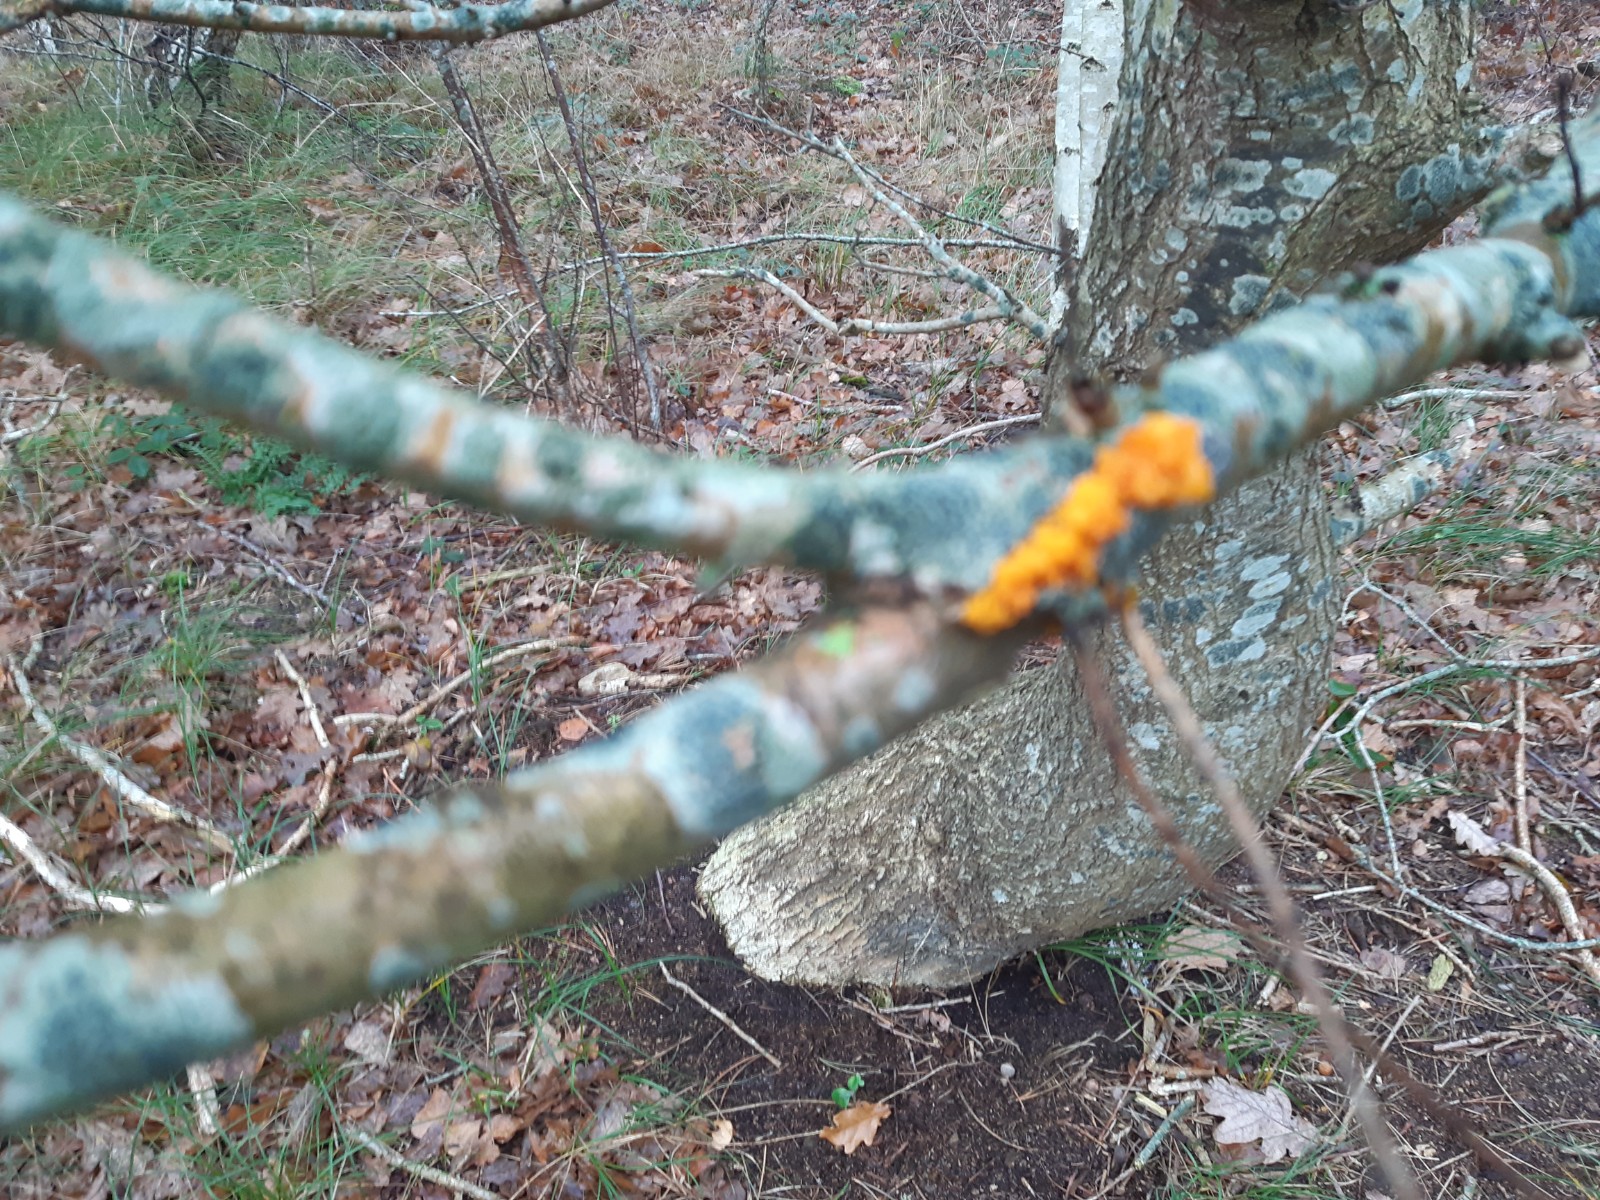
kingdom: Fungi
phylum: Basidiomycota
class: Tremellomycetes
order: Tremellales
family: Tremellaceae
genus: Tremella
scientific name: Tremella mesenterica
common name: gul bævresvamp
